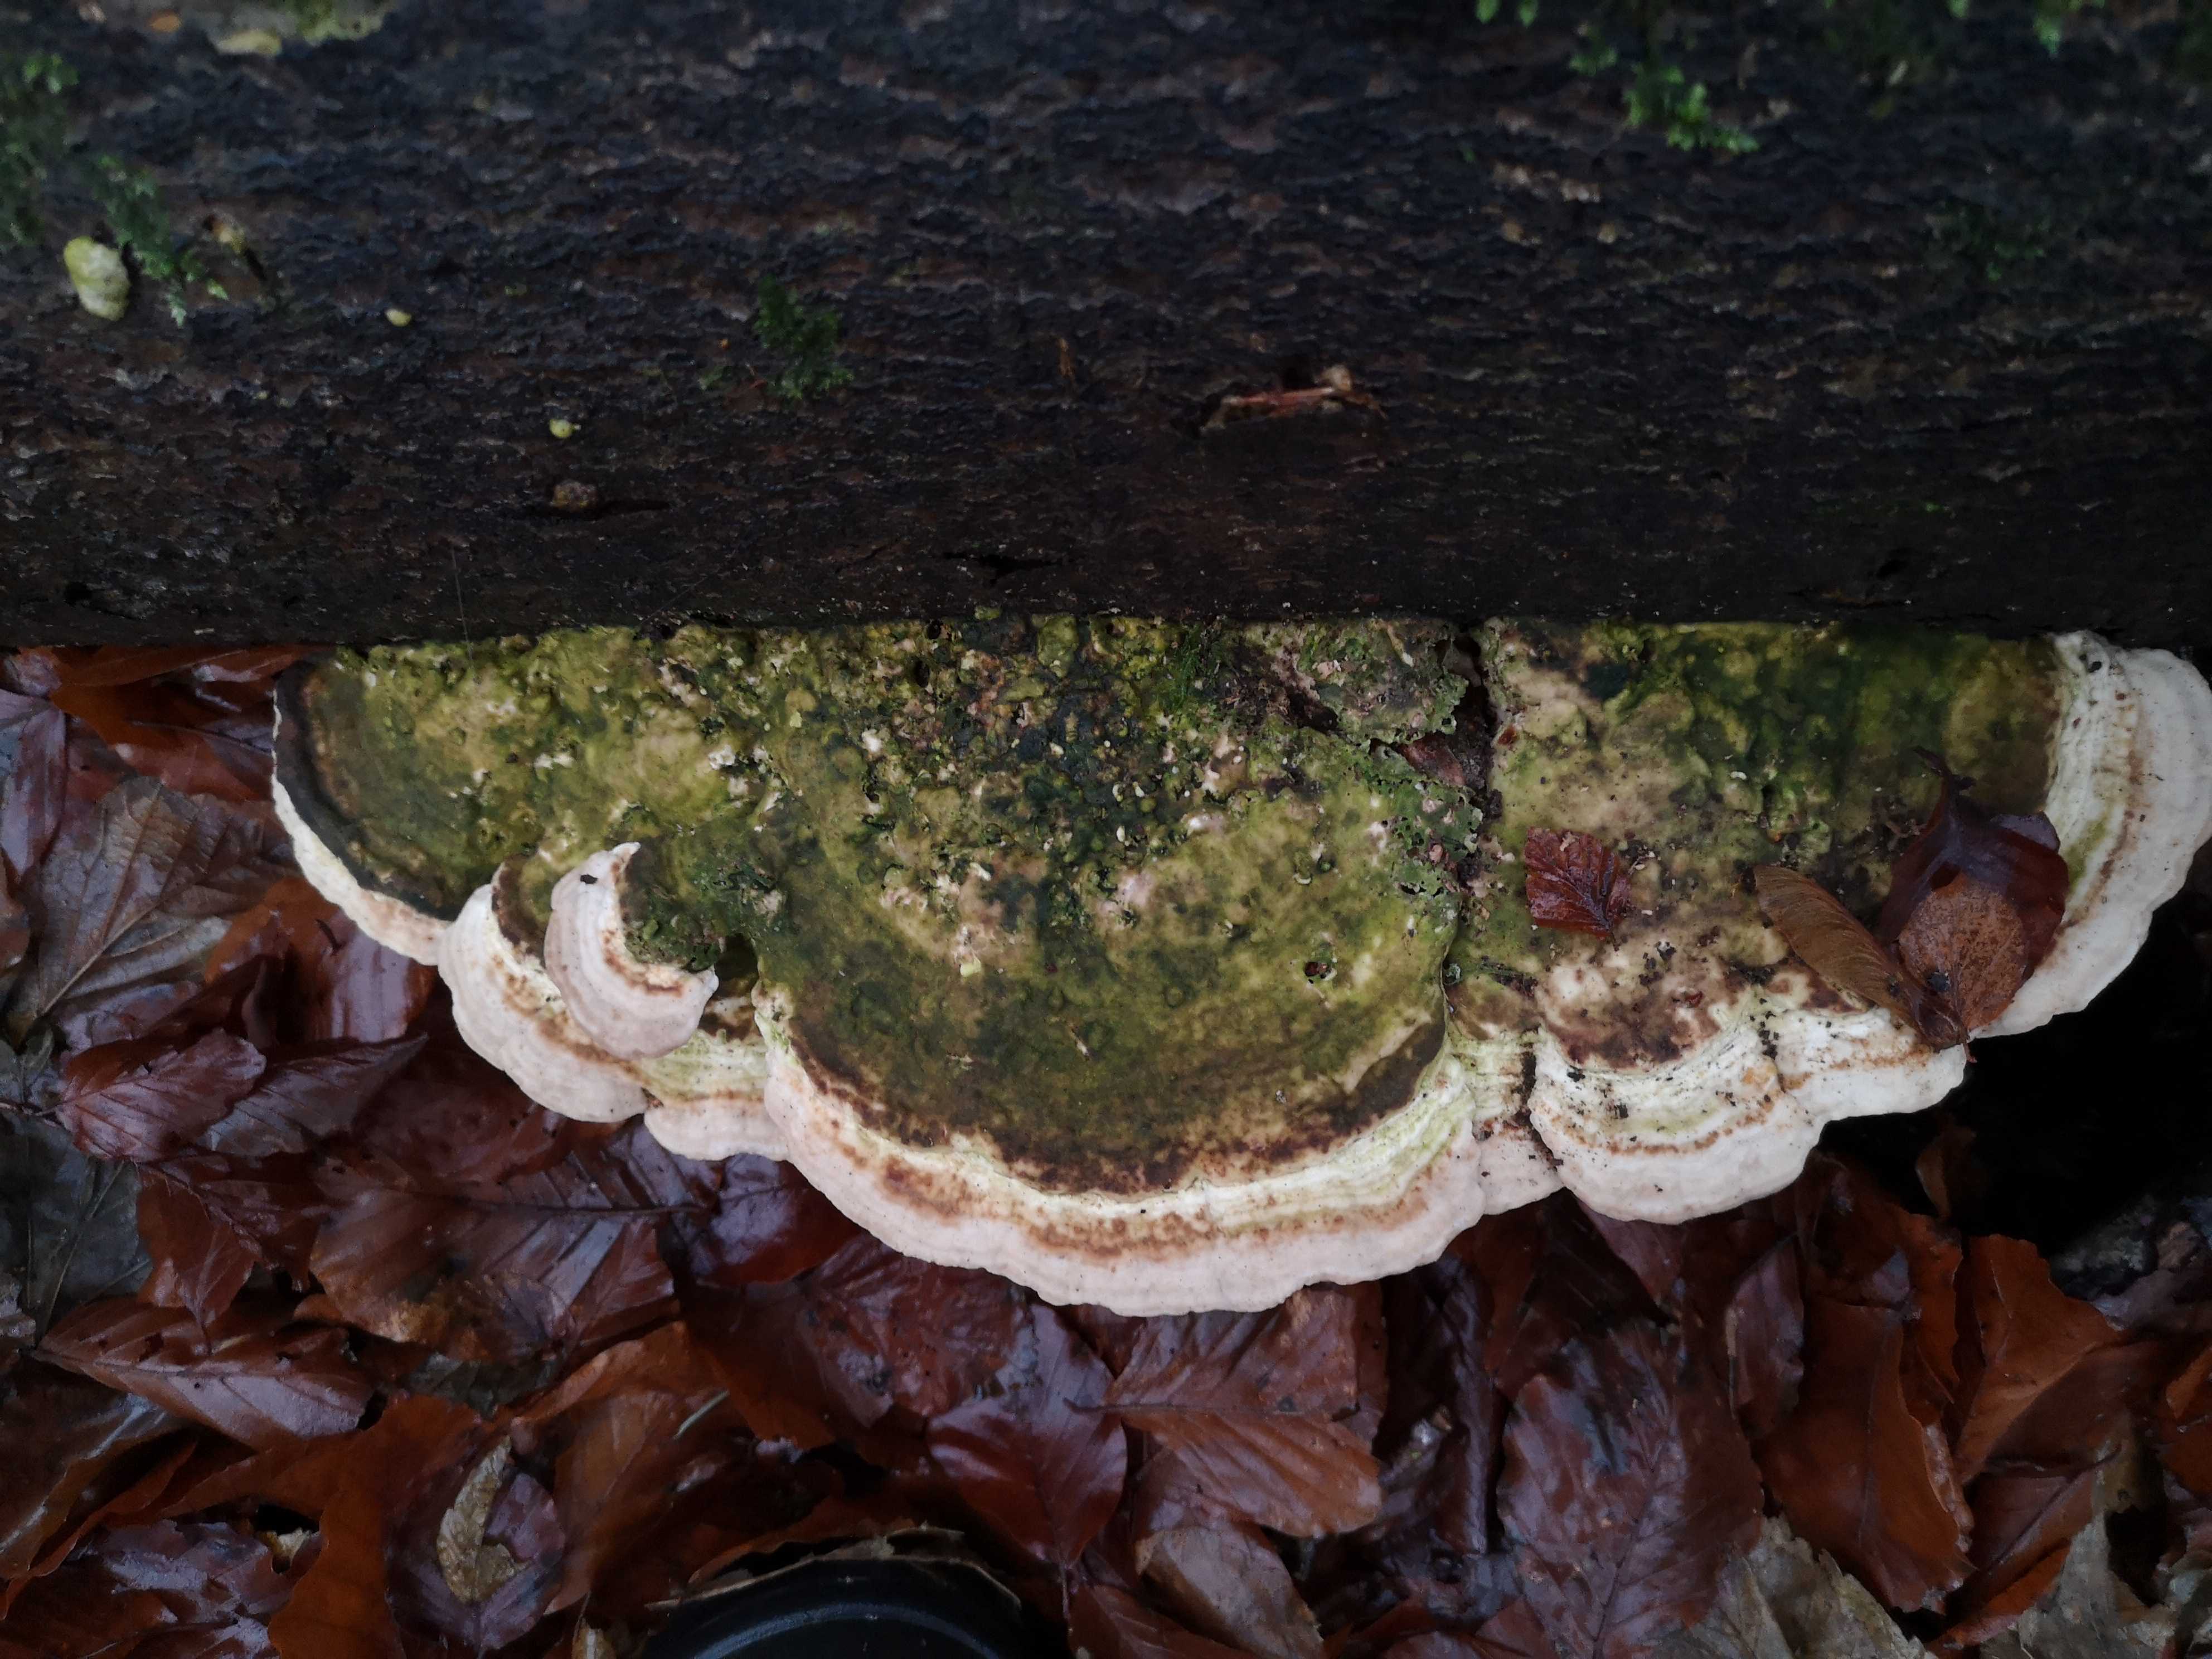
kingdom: Fungi
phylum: Basidiomycota
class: Agaricomycetes
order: Polyporales
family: Polyporaceae
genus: Trametes
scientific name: Trametes gibbosa
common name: puklet læderporesvamp
